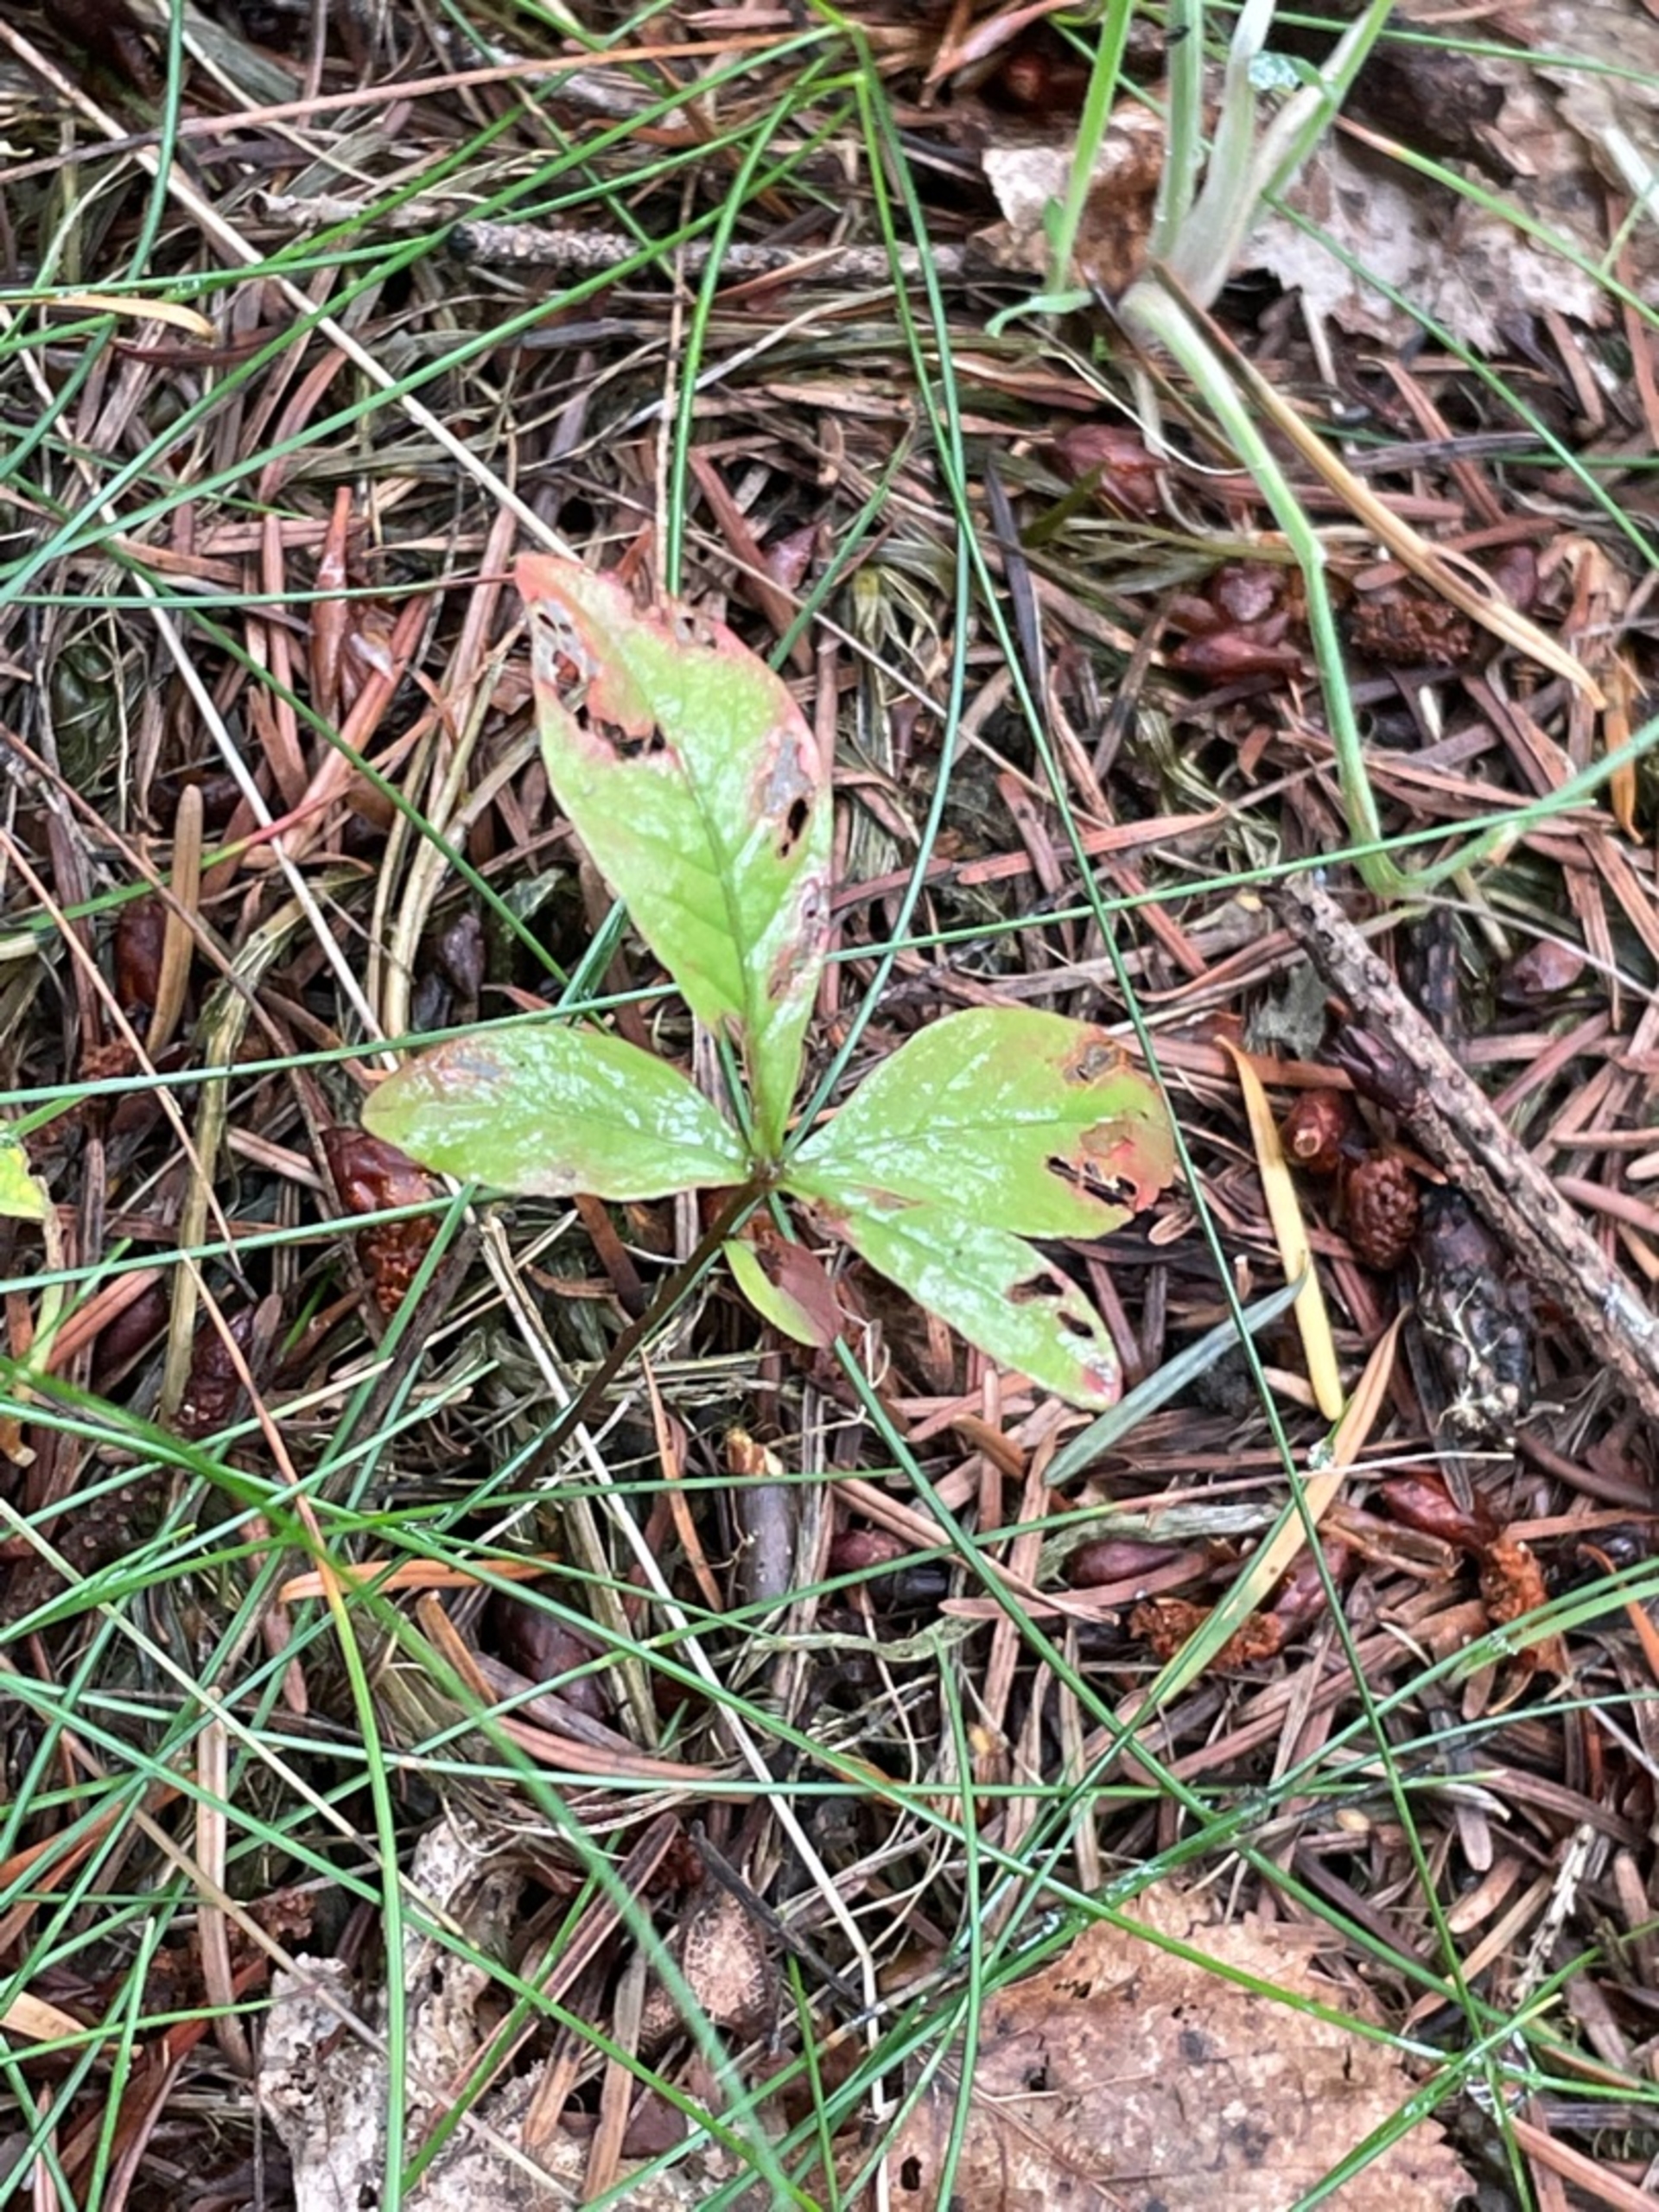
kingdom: Plantae
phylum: Tracheophyta
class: Magnoliopsida
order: Ericales
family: Primulaceae
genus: Lysimachia
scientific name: Lysimachia europaea
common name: Skovstjerne
